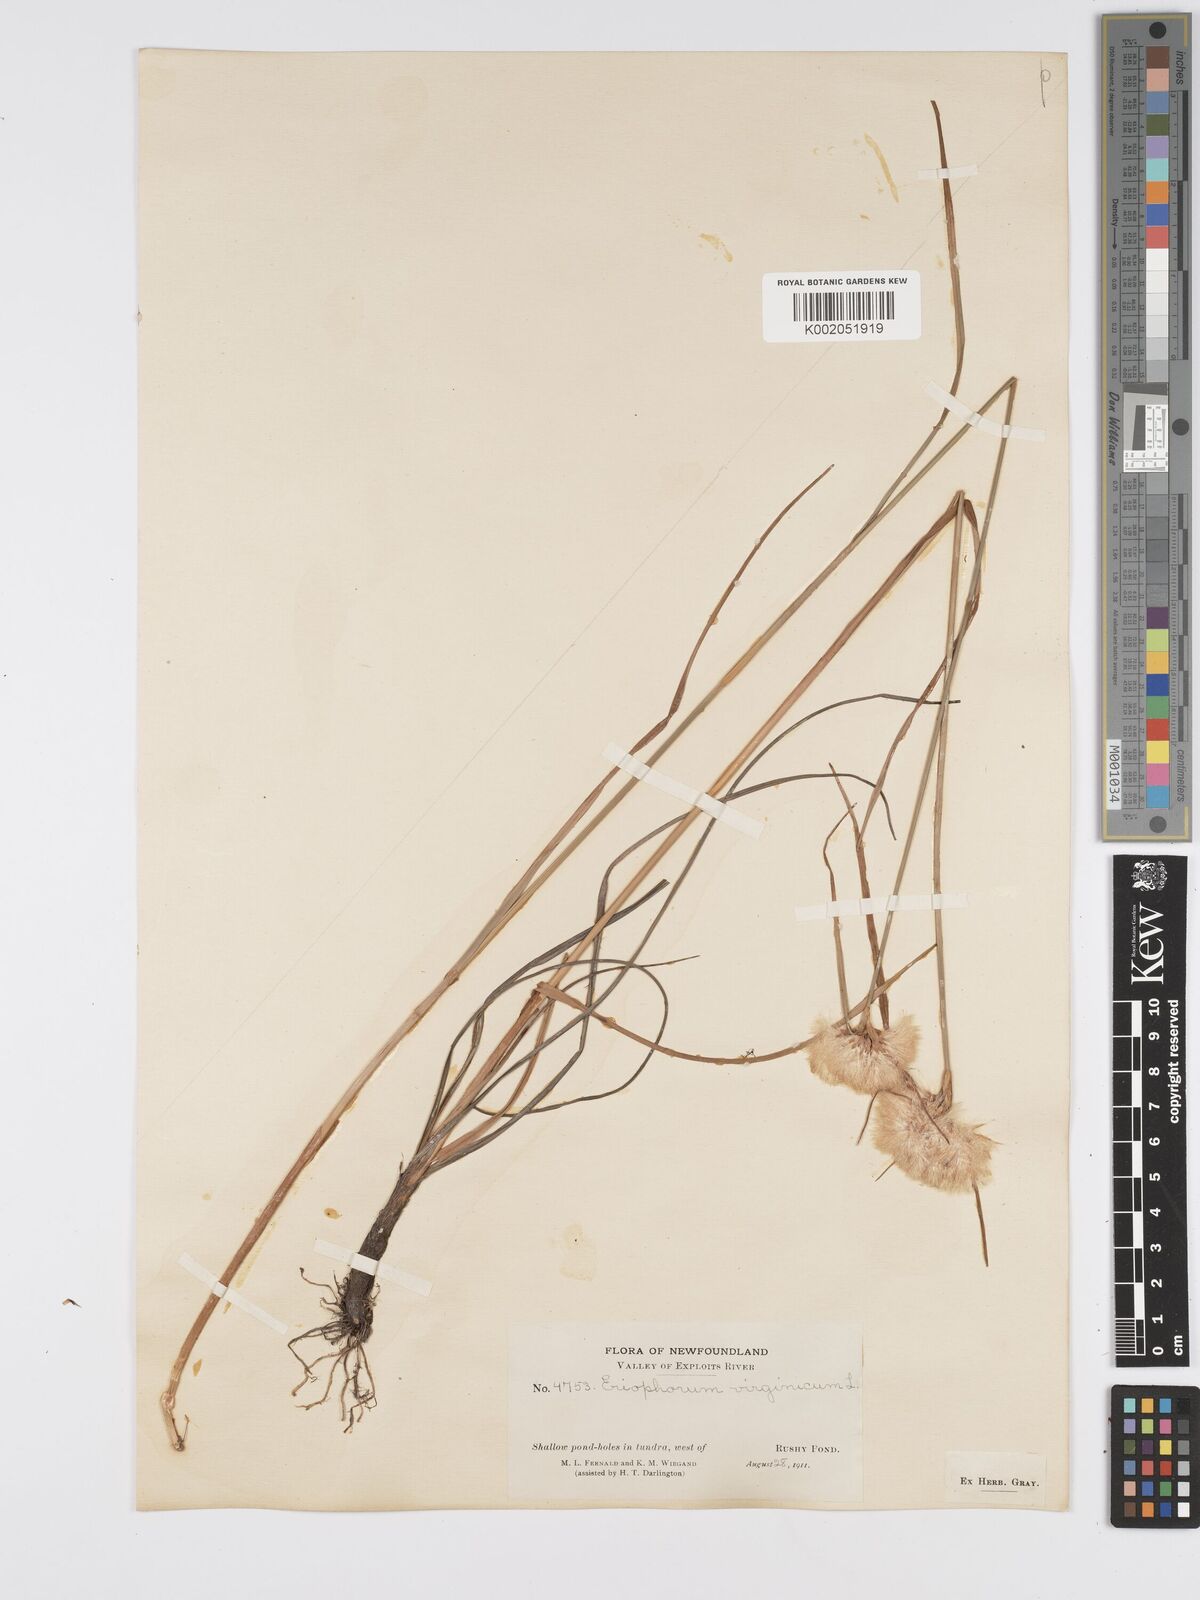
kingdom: Plantae
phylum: Tracheophyta
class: Liliopsida
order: Poales
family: Cyperaceae
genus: Eriophorum
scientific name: Eriophorum virginicum
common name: Tawny cottongrass
